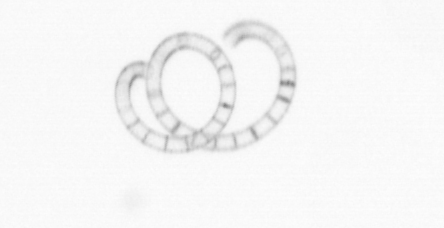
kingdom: Chromista
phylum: Ochrophyta
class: Bacillariophyceae
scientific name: Bacillariophyceae
